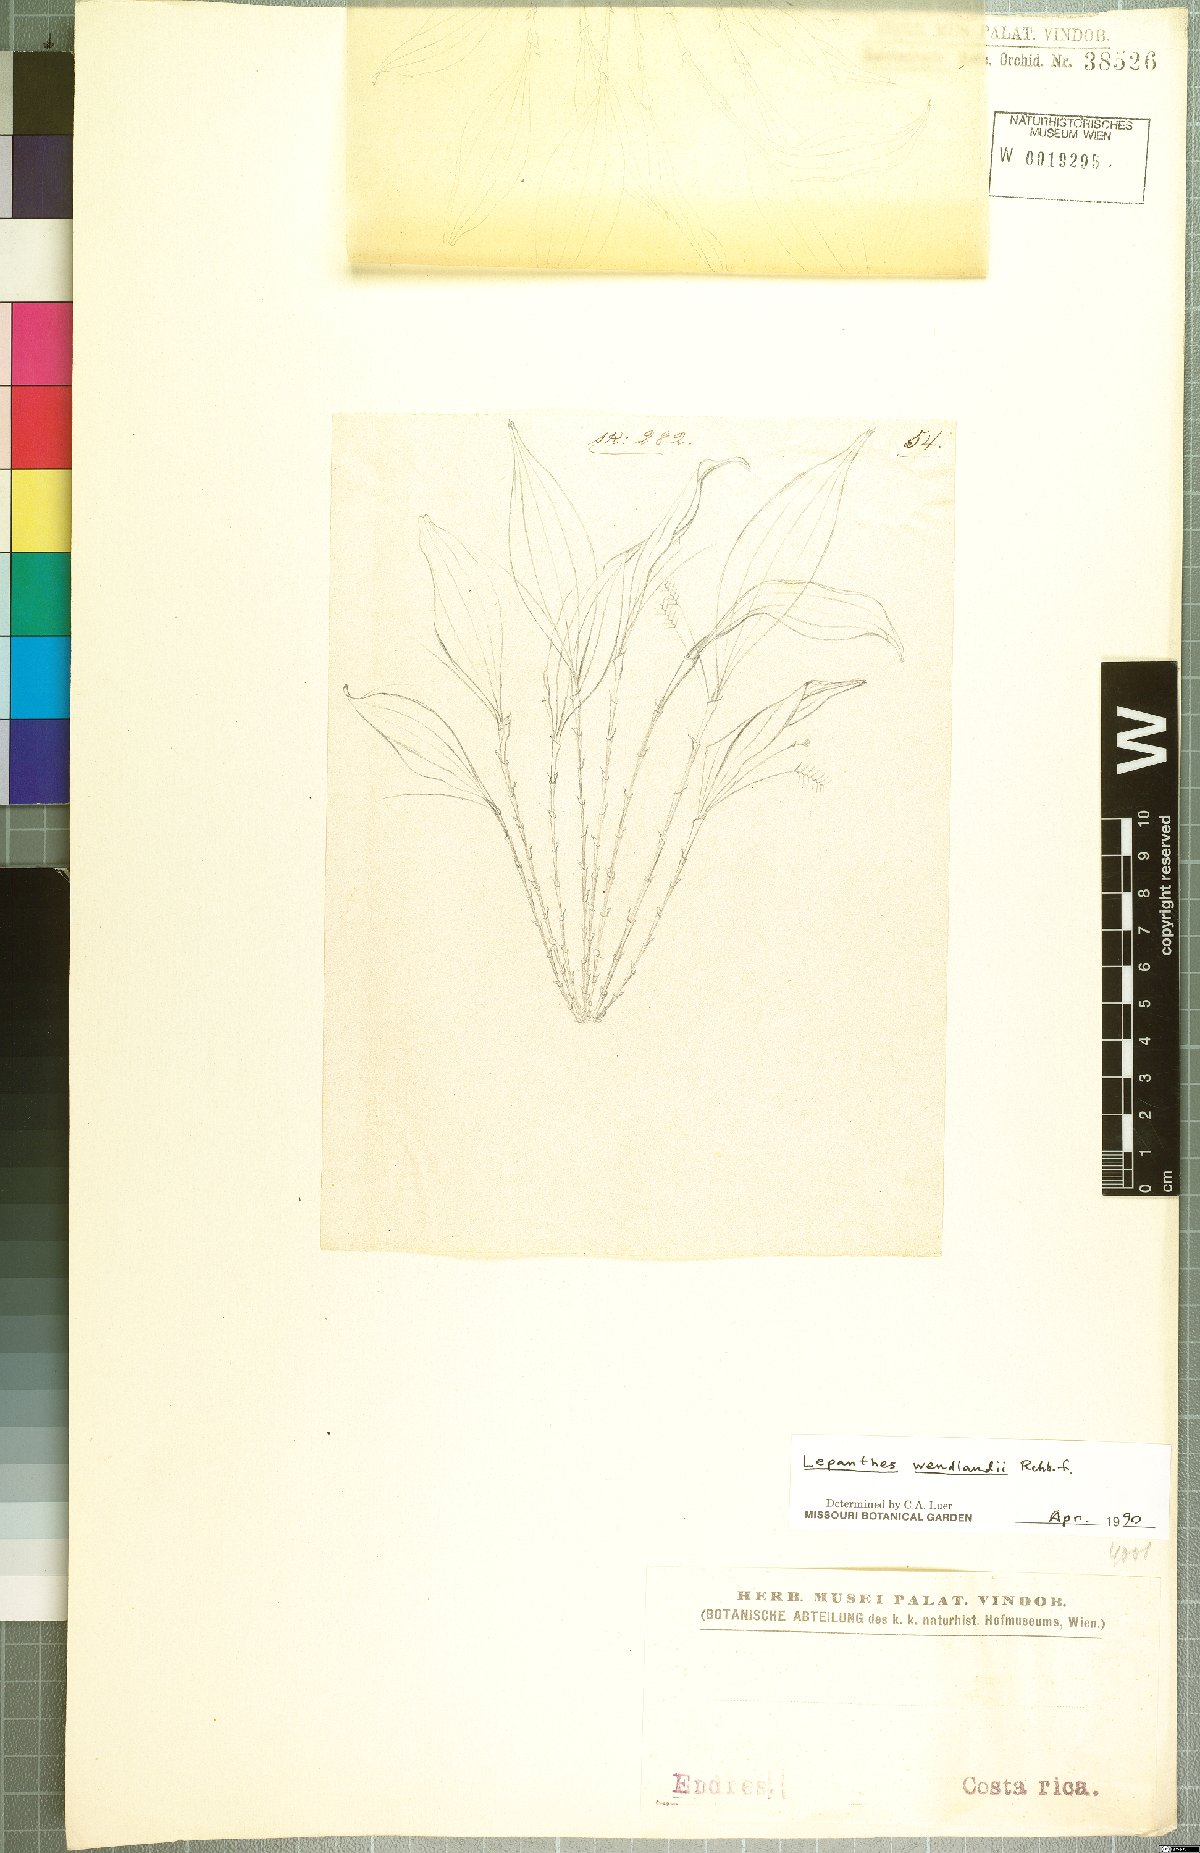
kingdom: Plantae
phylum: Tracheophyta
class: Liliopsida
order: Asparagales
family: Orchidaceae
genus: Lepanthes
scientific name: Lepanthes wendlandii
